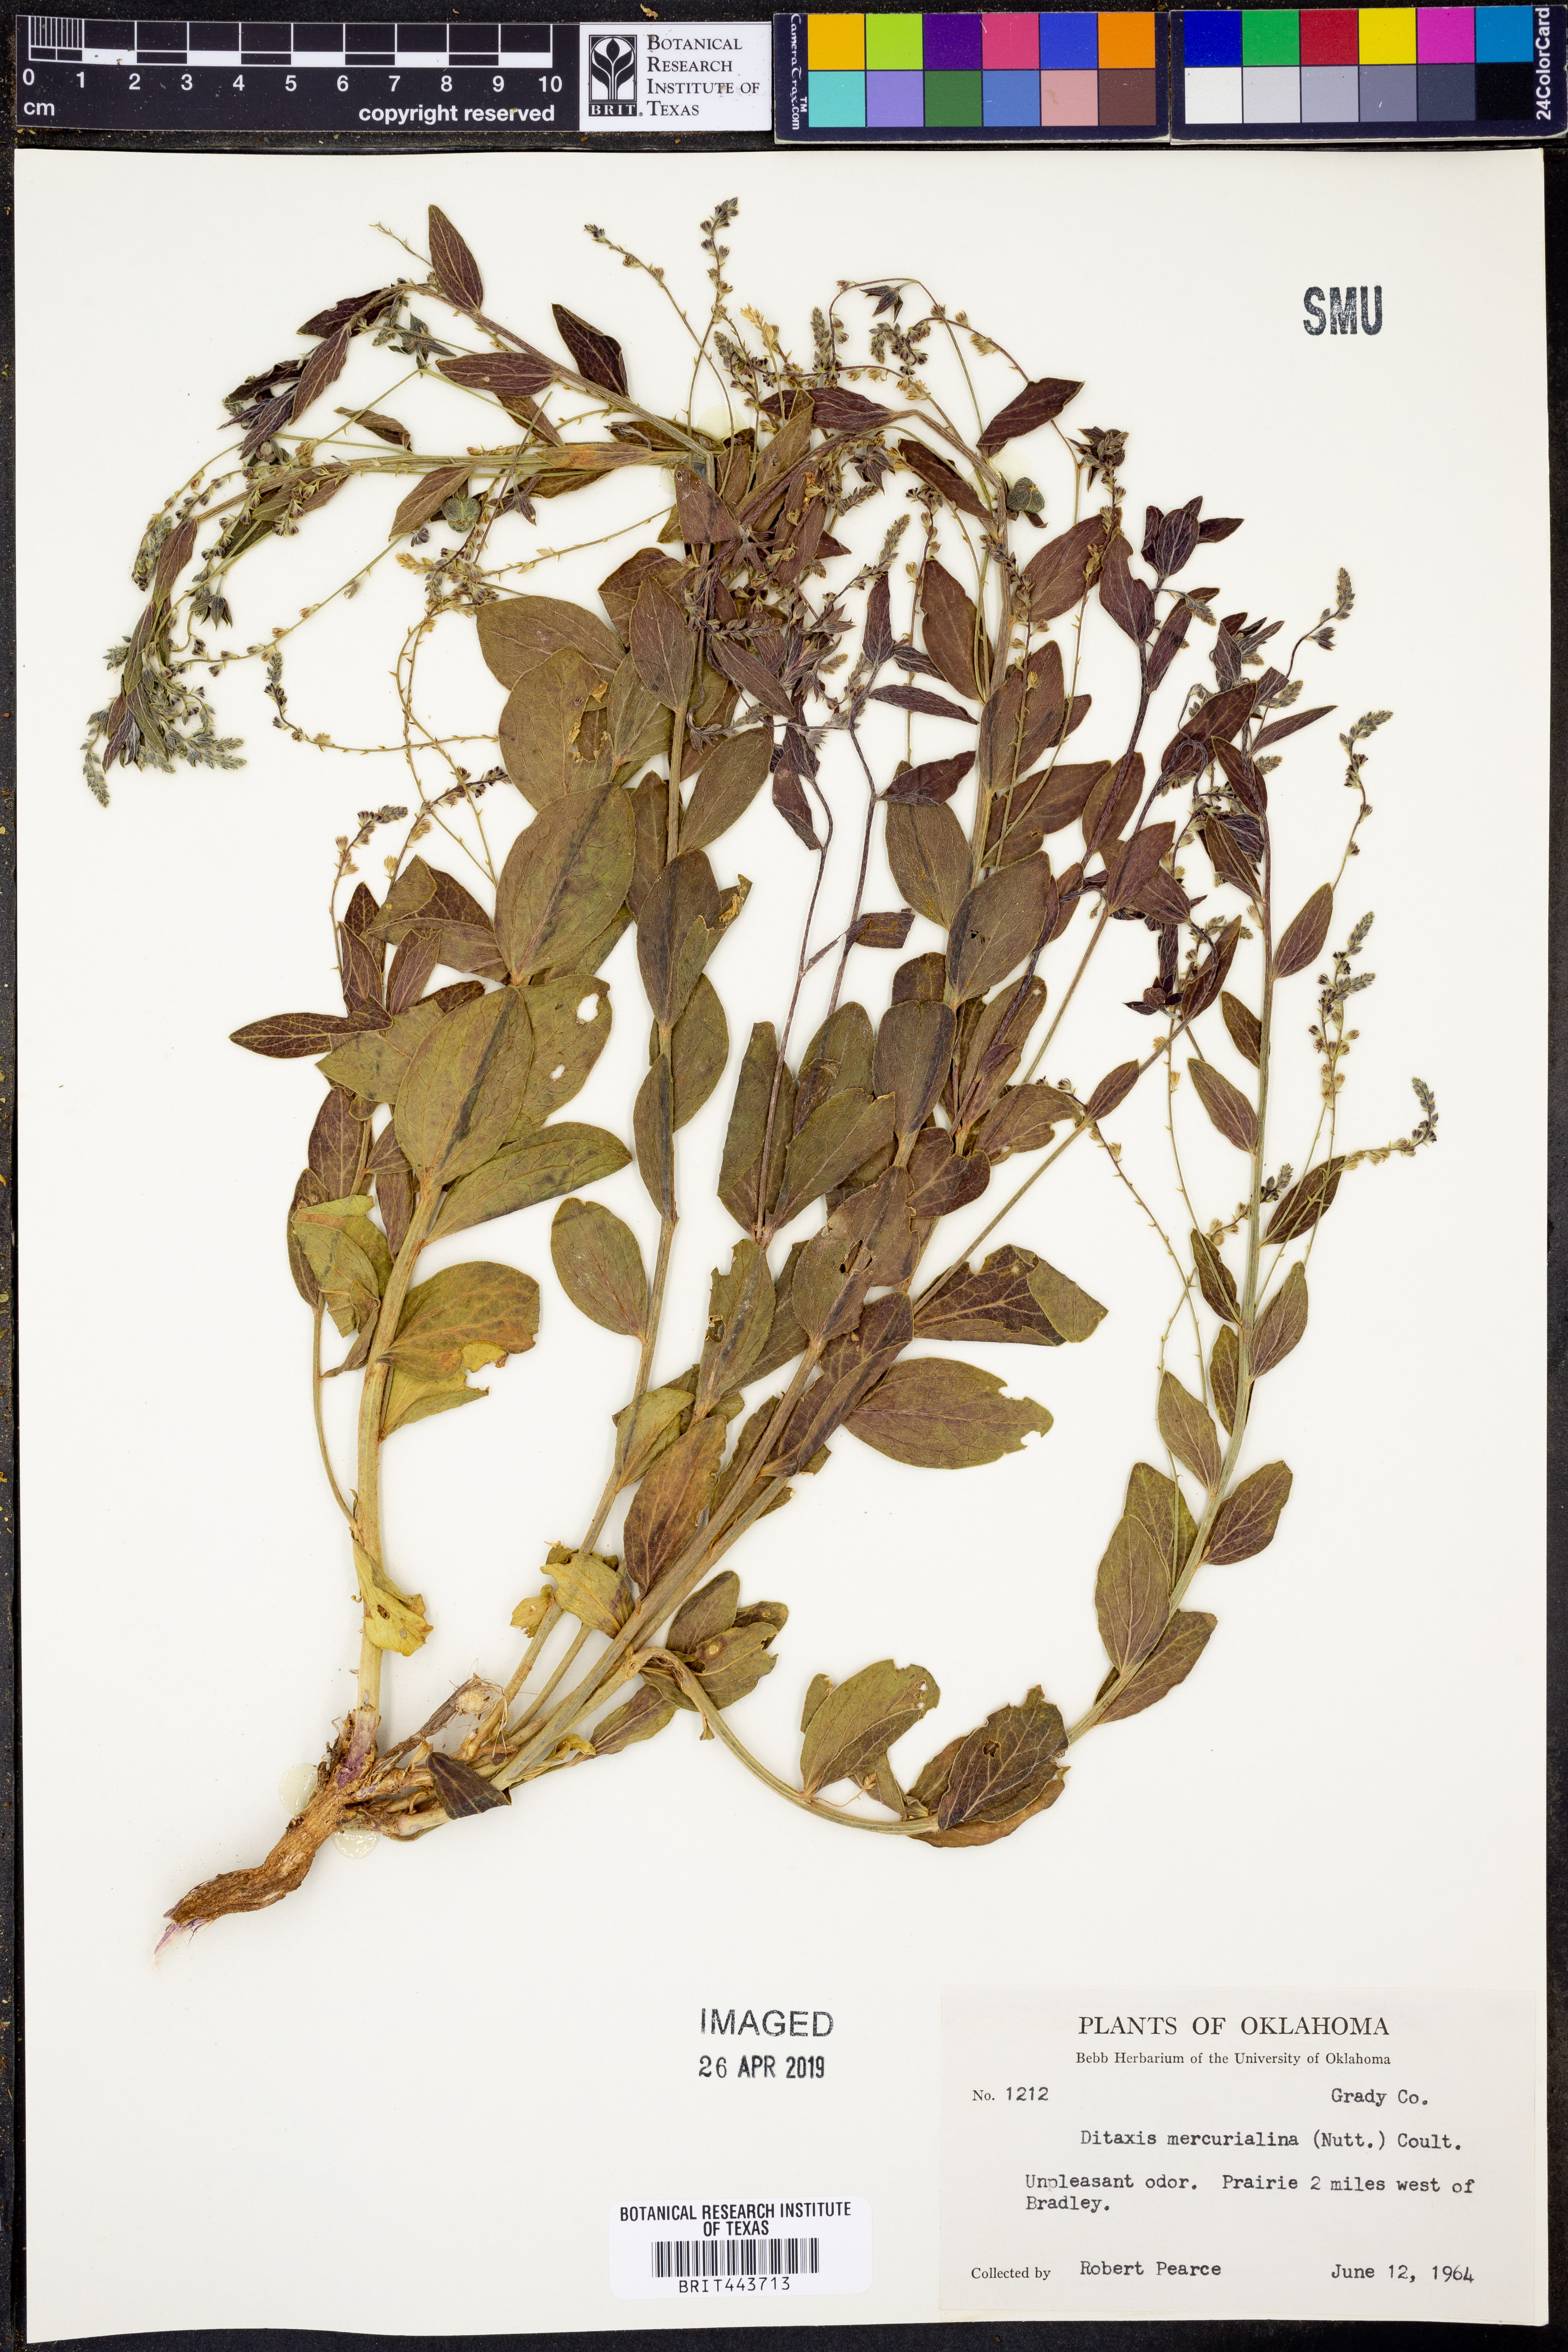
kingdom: Plantae
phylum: Tracheophyta
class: Magnoliopsida
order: Malpighiales
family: Euphorbiaceae
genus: Ditaxis
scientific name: Ditaxis mercurialina
